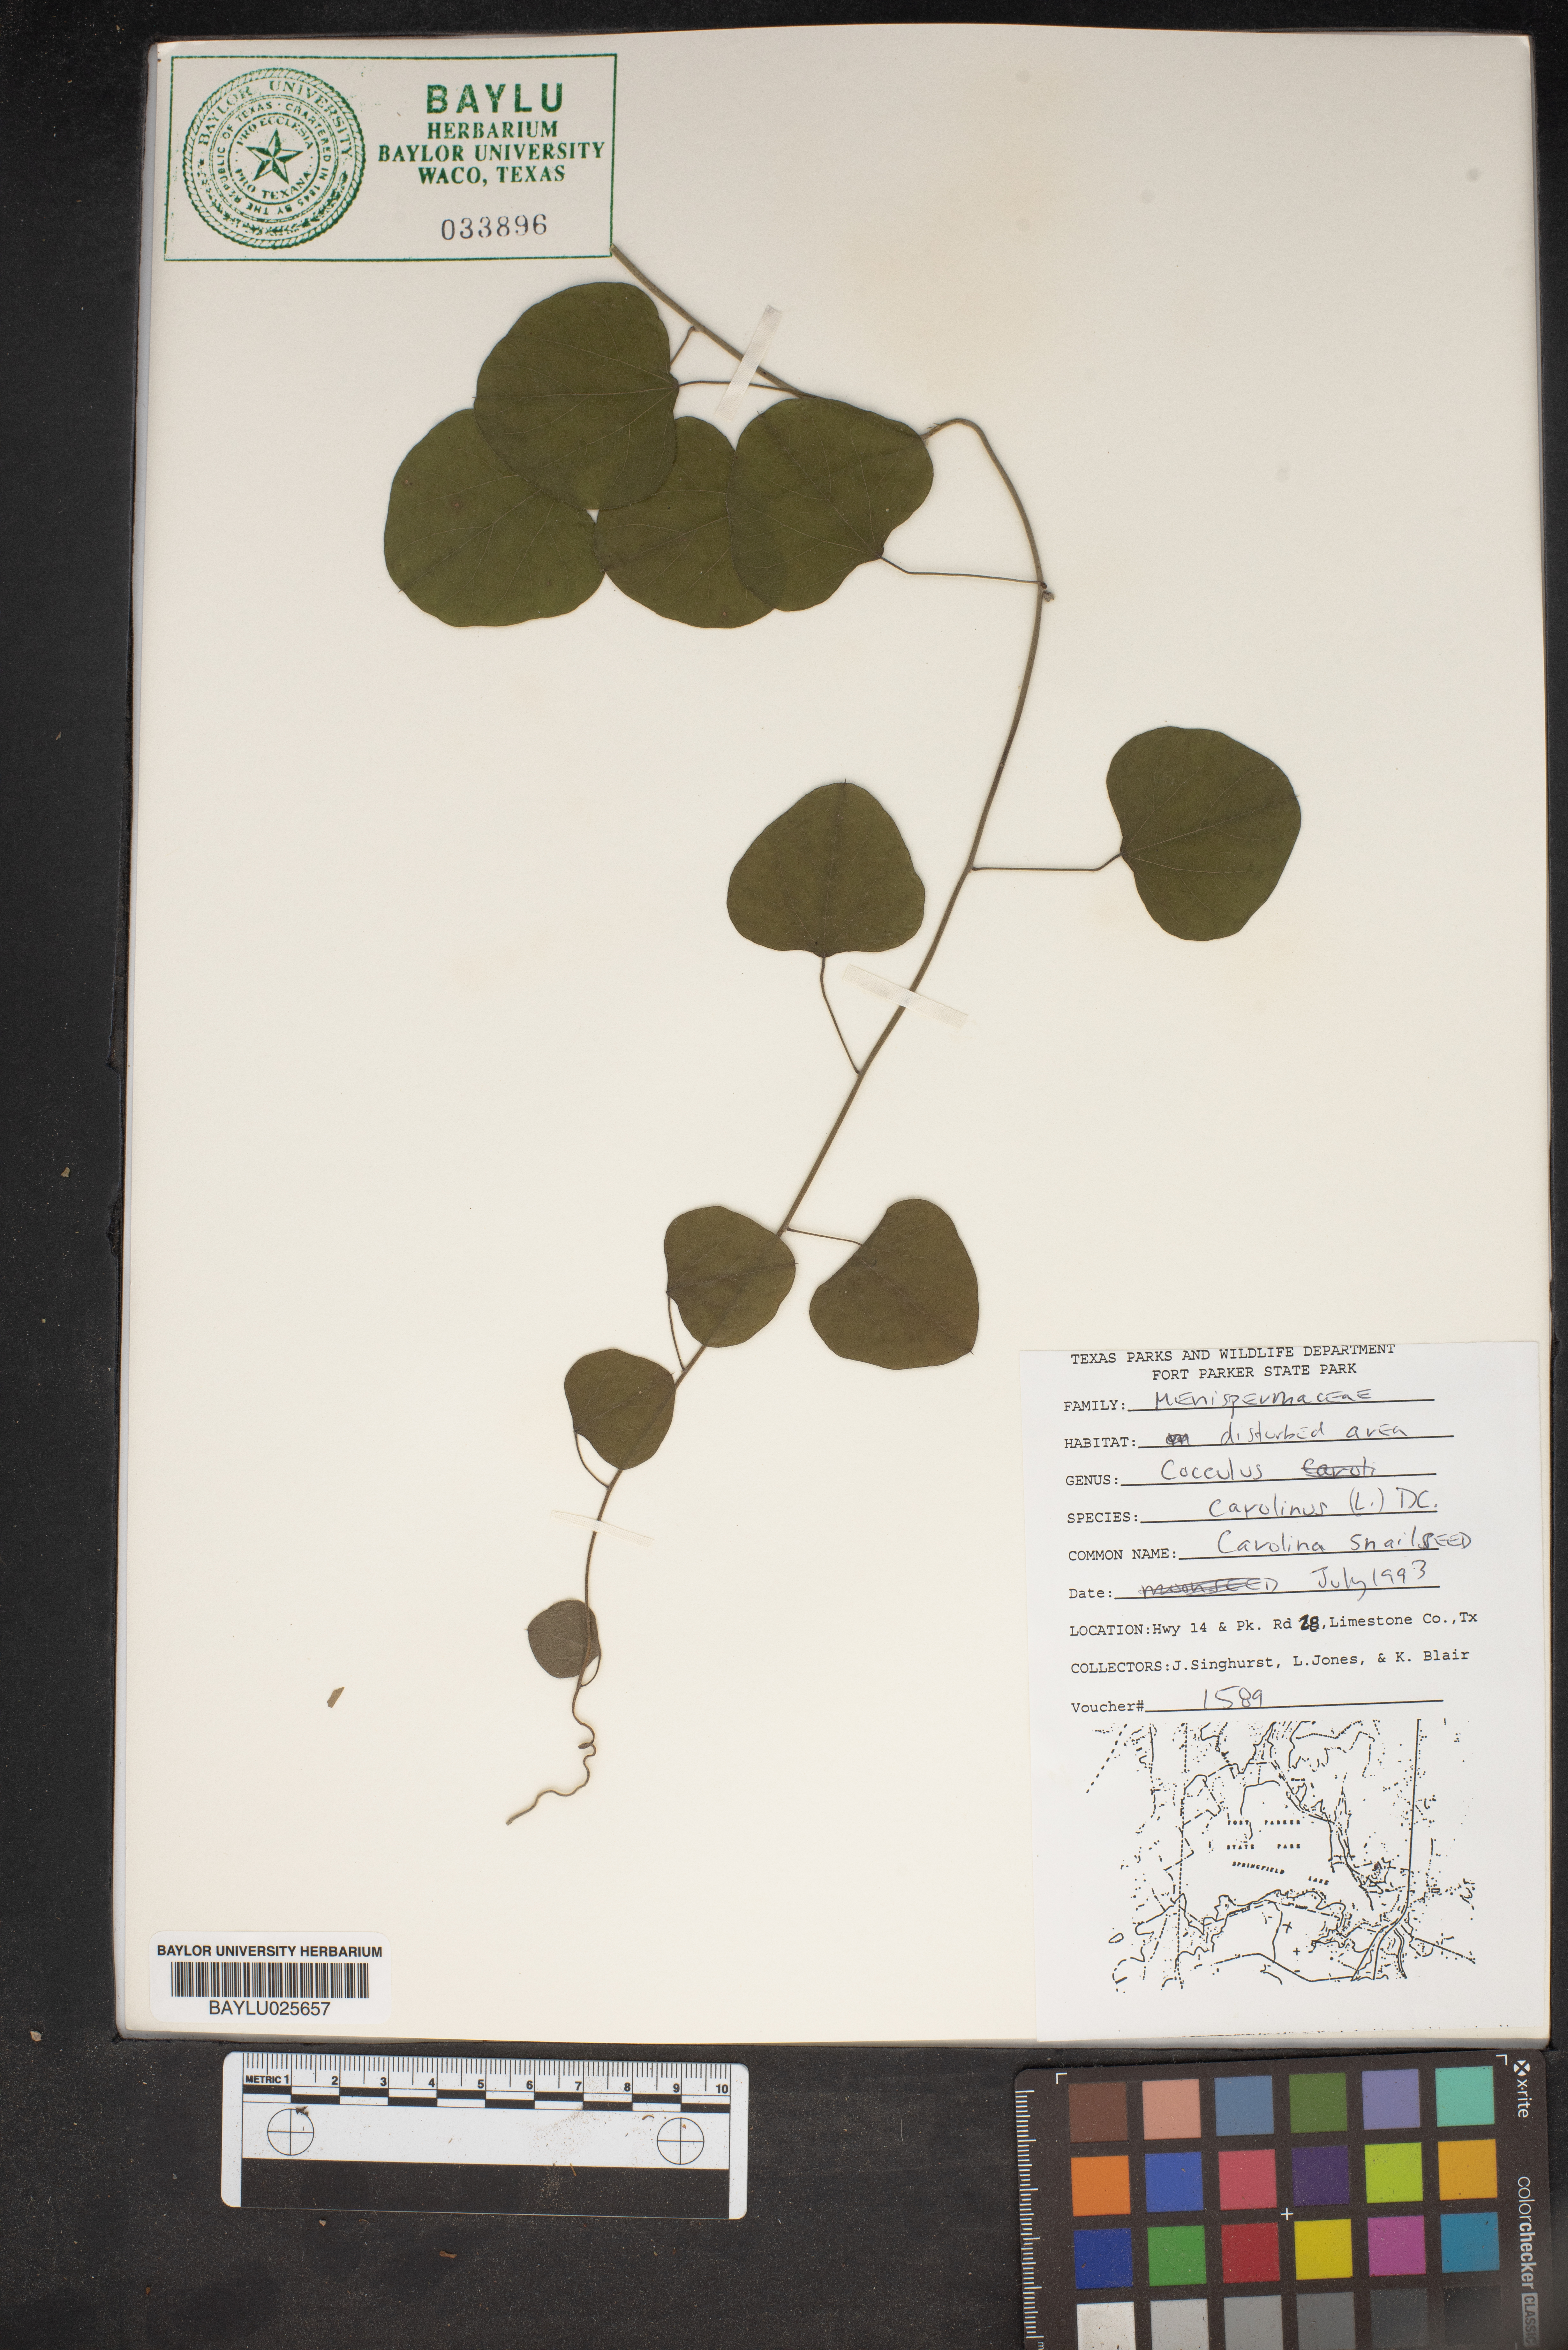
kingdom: Plantae
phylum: Tracheophyta
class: Magnoliopsida
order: Ranunculales
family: Menispermaceae
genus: Cocculus
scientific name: Cocculus carolinus
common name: Carolina moonseed
